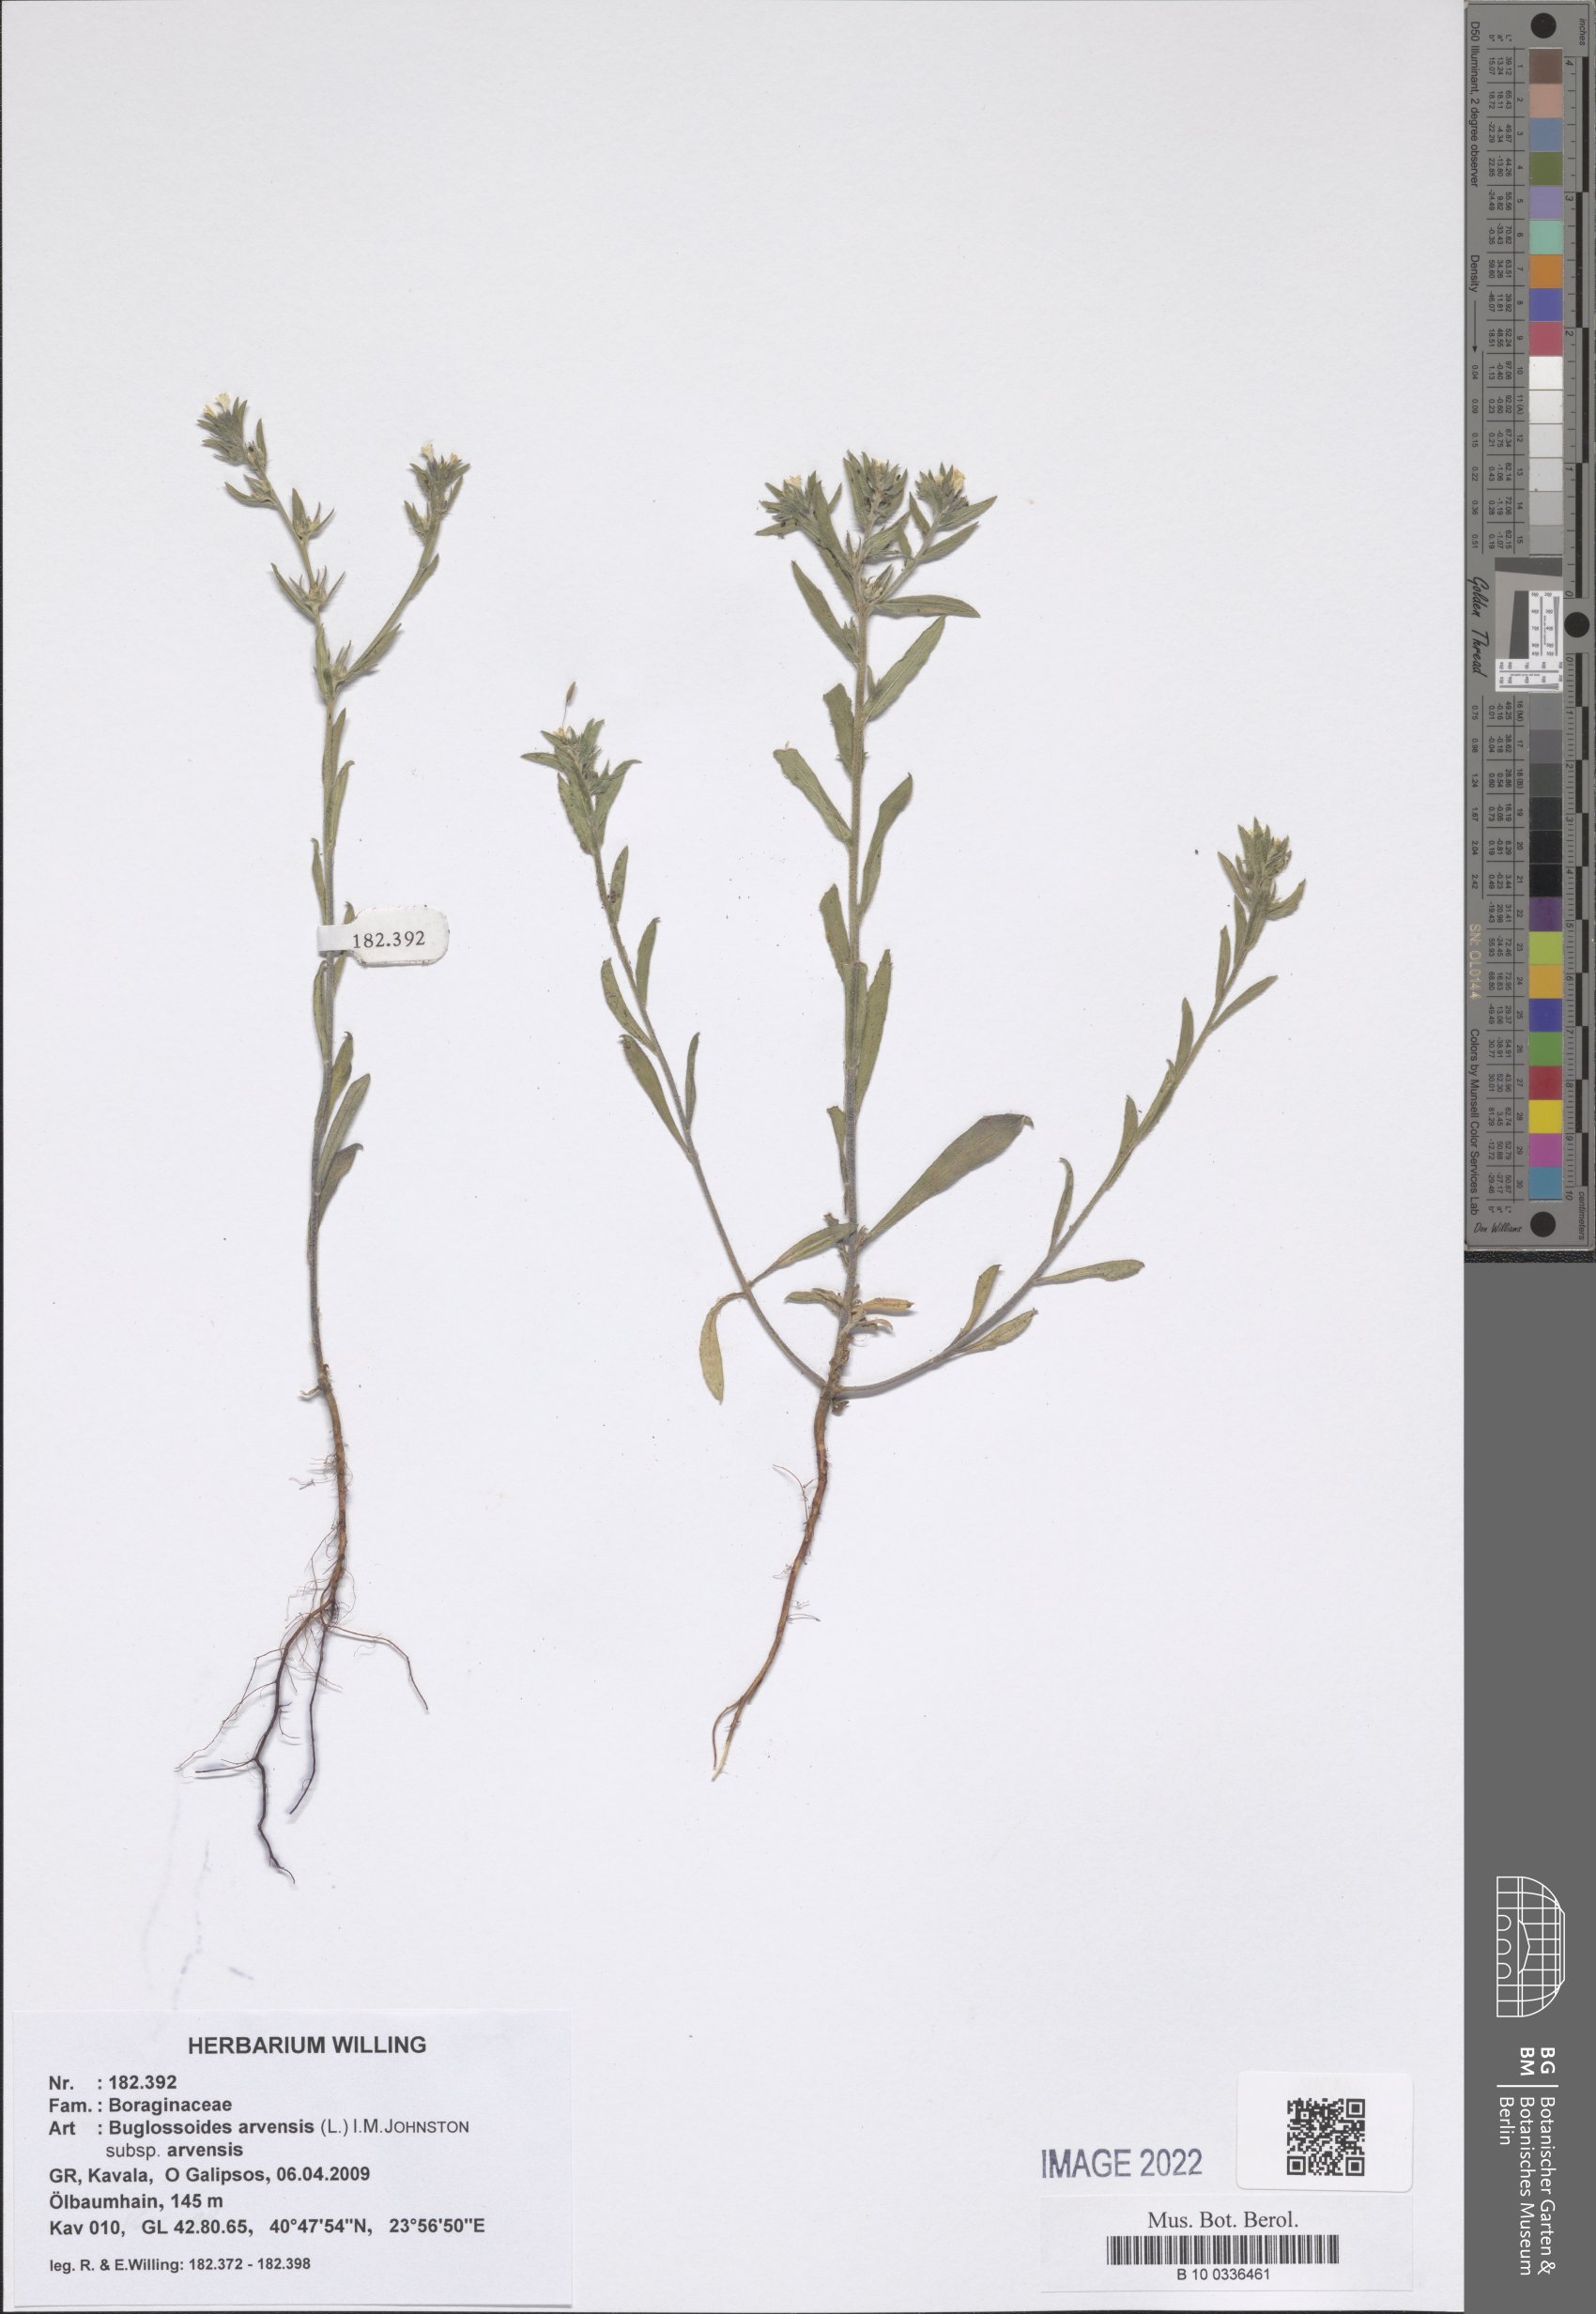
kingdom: Plantae
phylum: Tracheophyta
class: Magnoliopsida
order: Boraginales
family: Boraginaceae
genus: Buglossoides
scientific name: Buglossoides arvensis
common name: Corn gromwell
